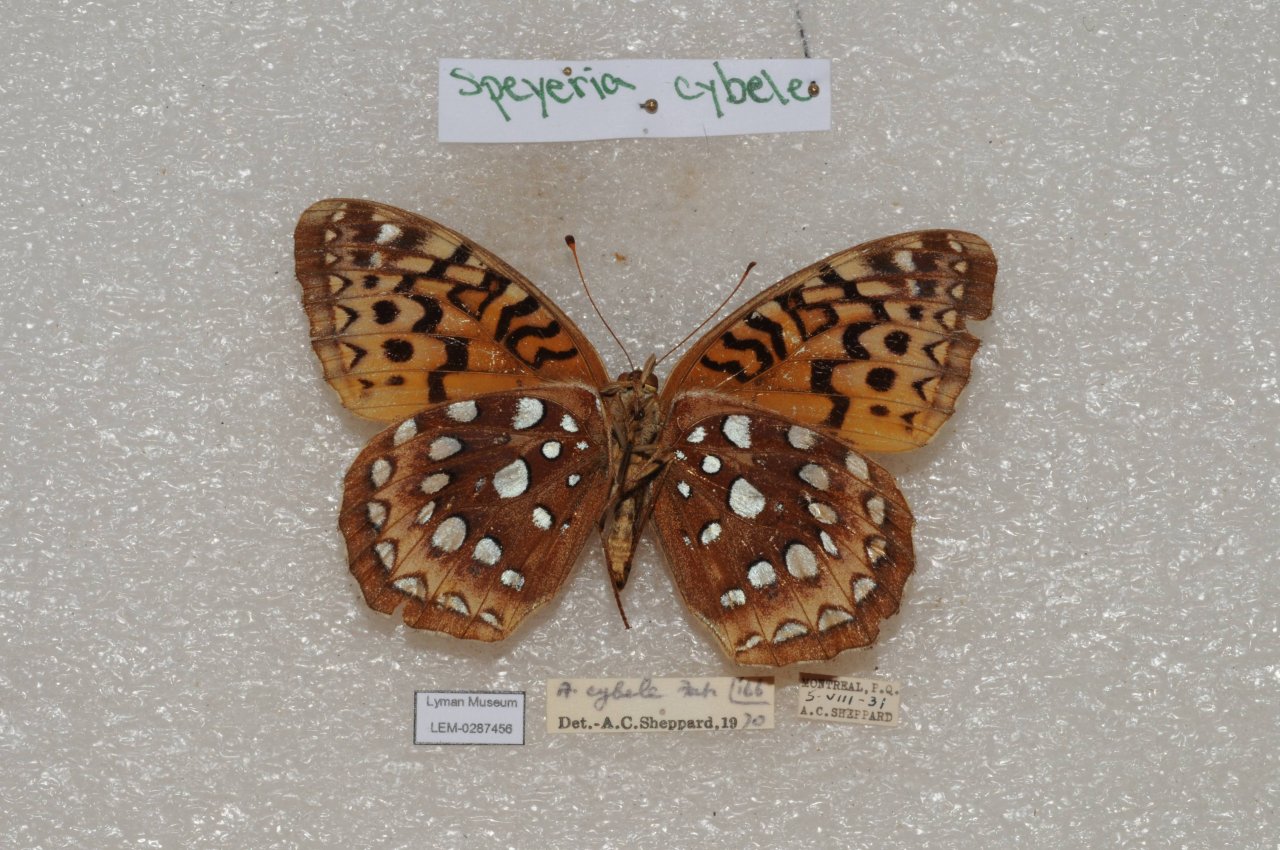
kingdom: Animalia
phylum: Arthropoda
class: Insecta
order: Lepidoptera
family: Nymphalidae
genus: Speyeria
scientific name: Speyeria cybele
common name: Great Spangled Fritillary
